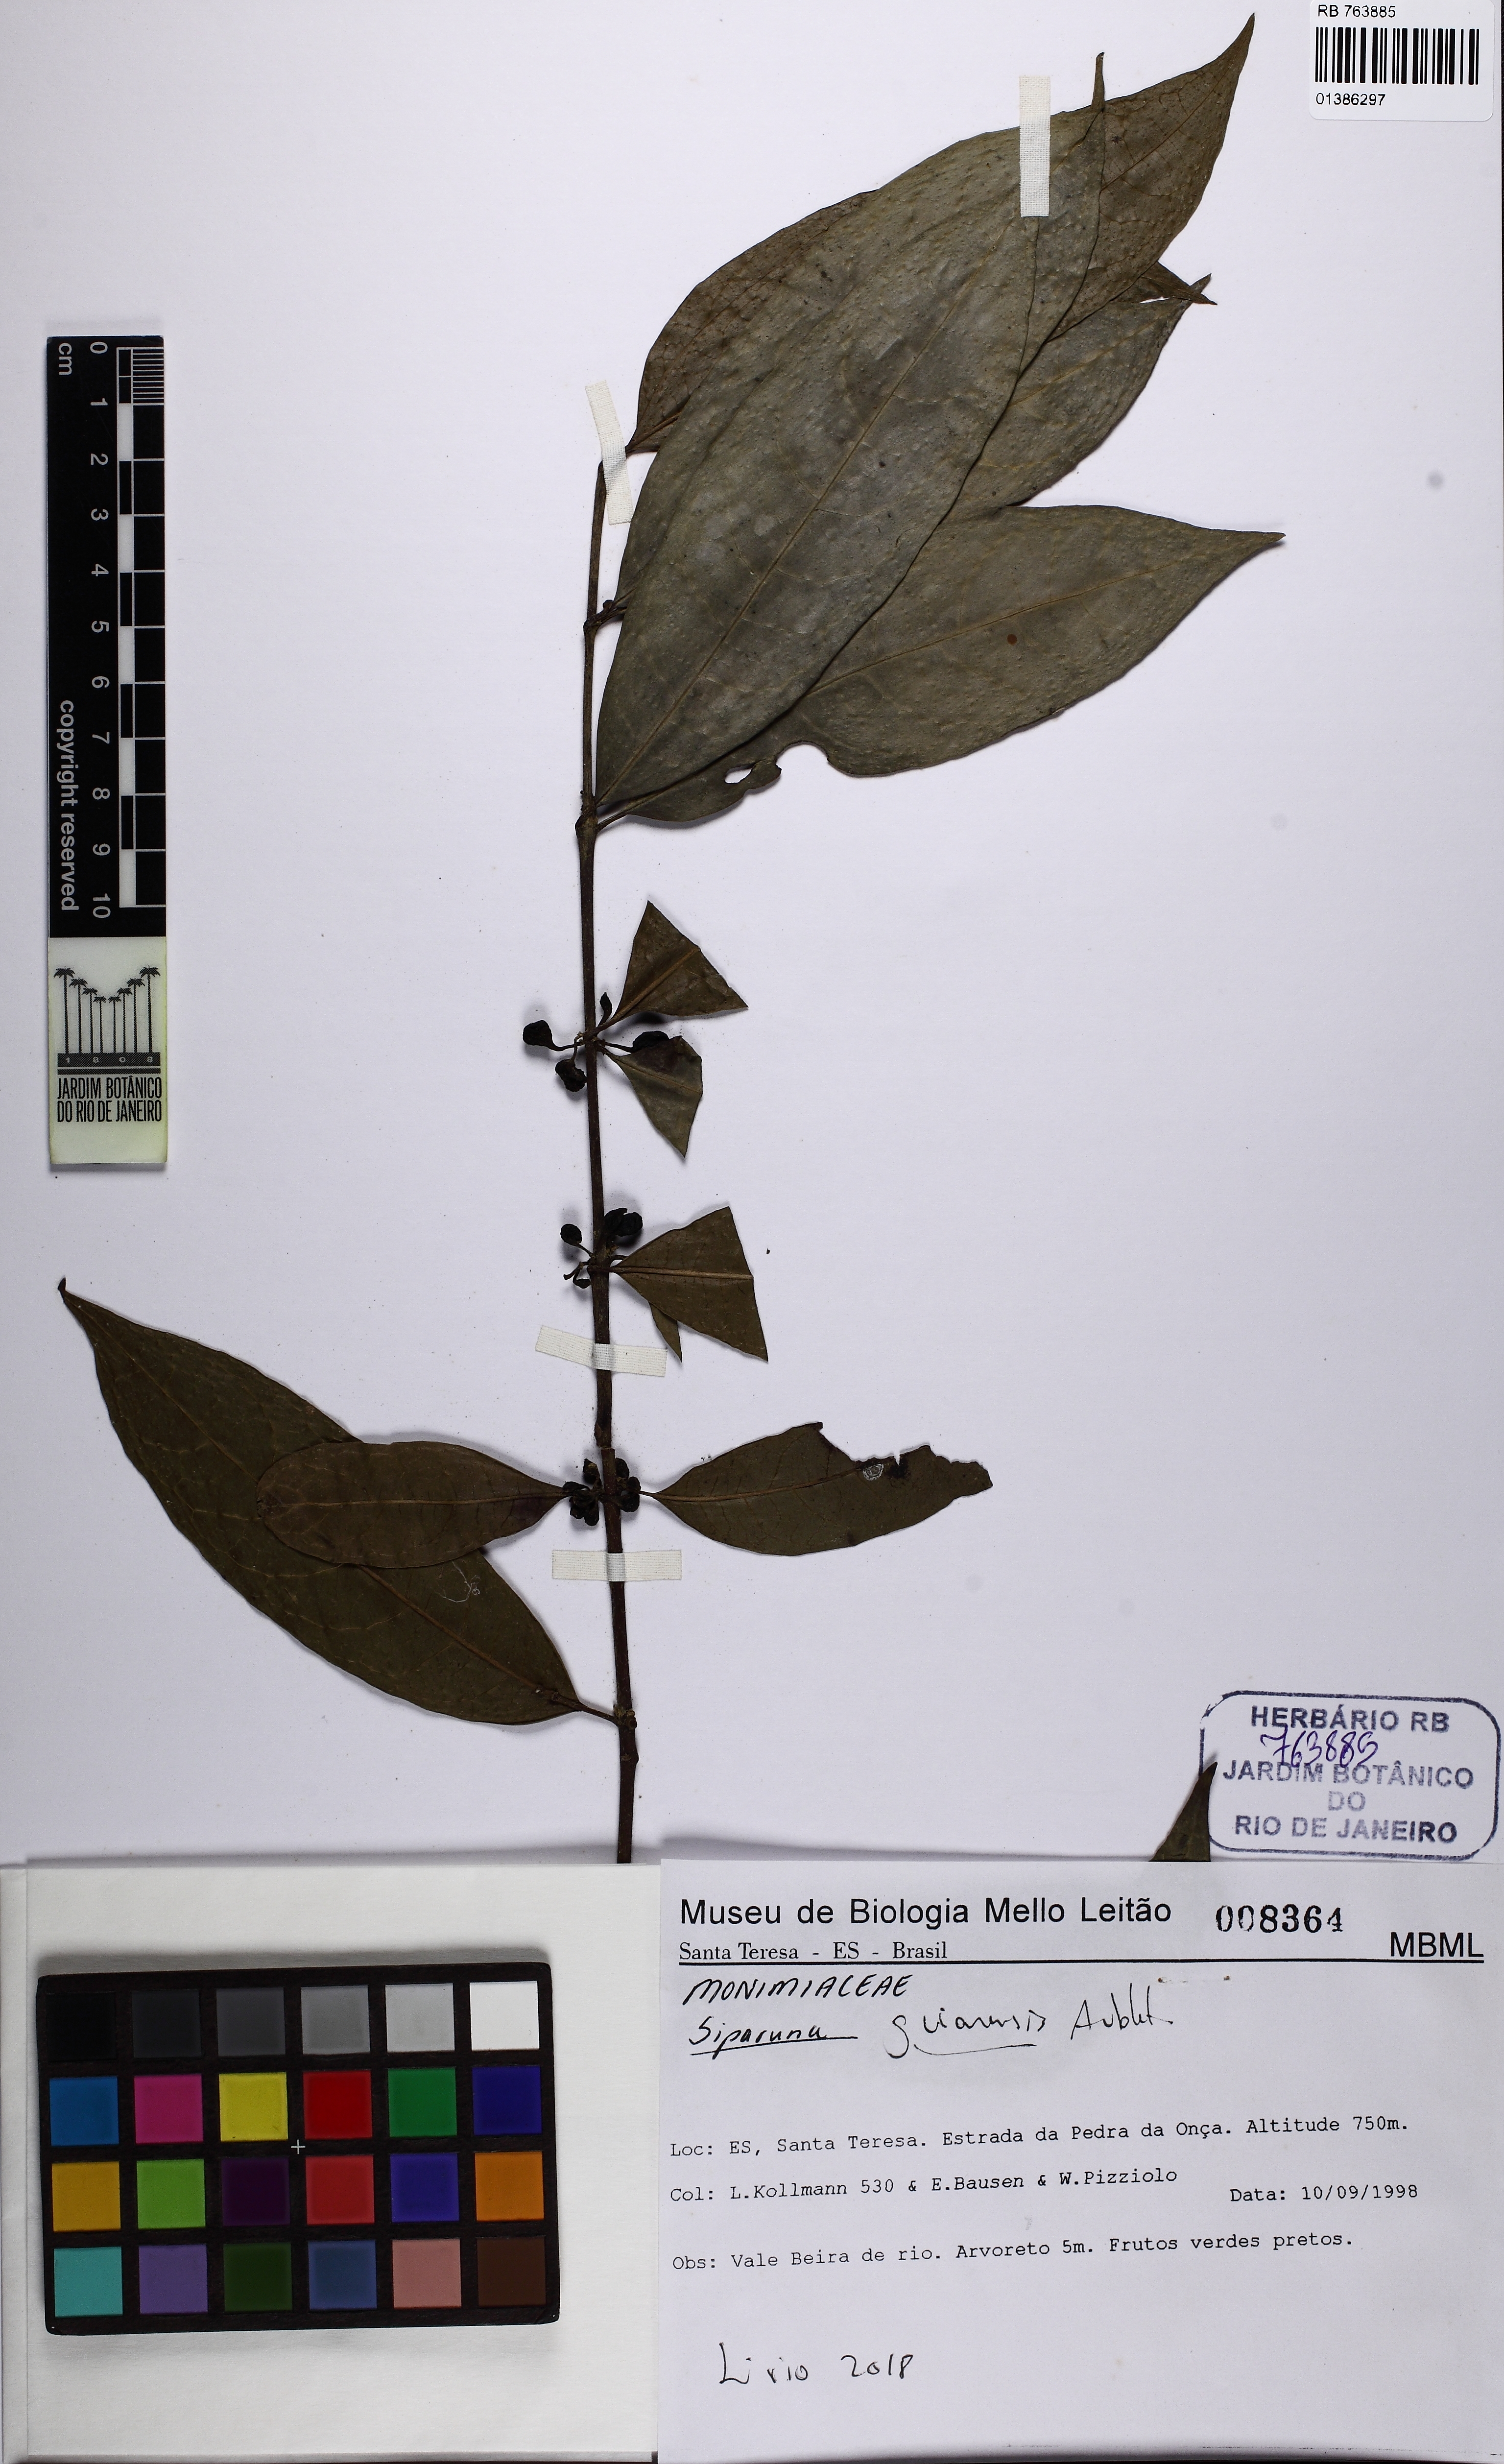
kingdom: Plantae
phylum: Tracheophyta
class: Magnoliopsida
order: Laurales
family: Siparunaceae
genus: Siparuna
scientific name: Siparuna guianensis
